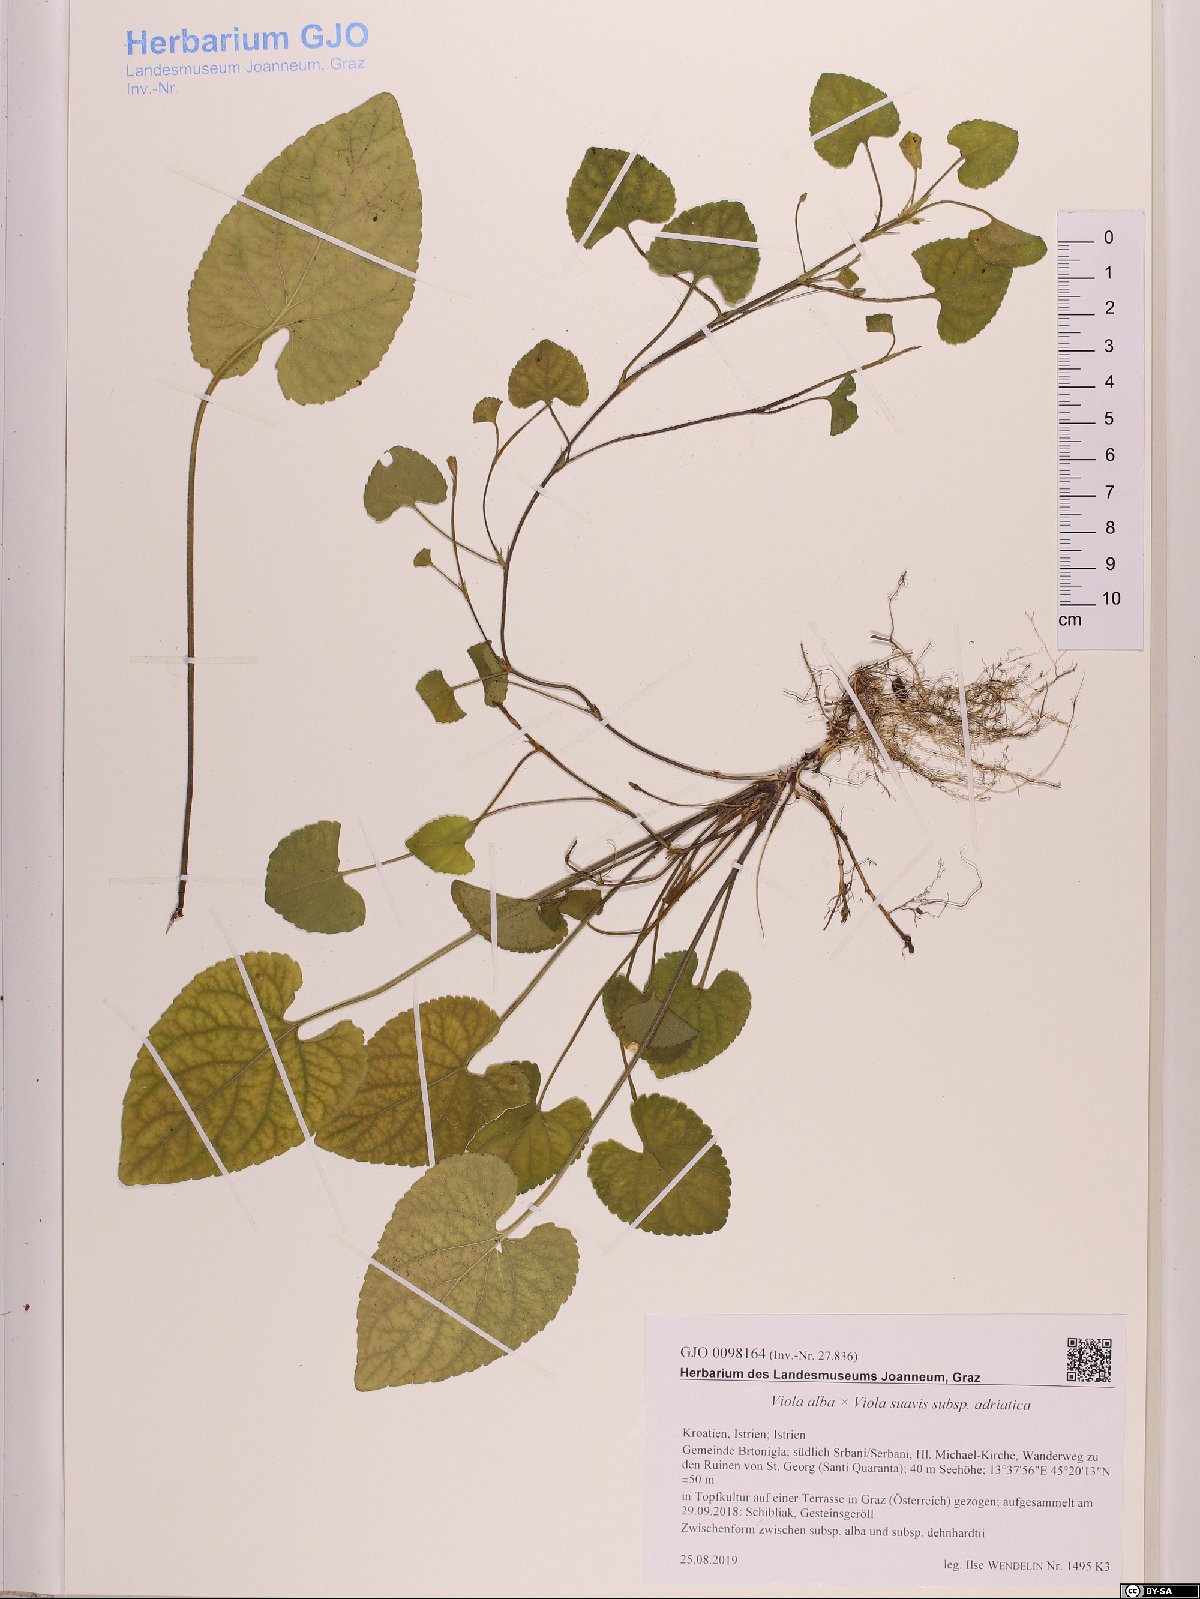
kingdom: Plantae
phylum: Tracheophyta
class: Magnoliopsida
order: Malpighiales
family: Violaceae
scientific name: Violaceae
